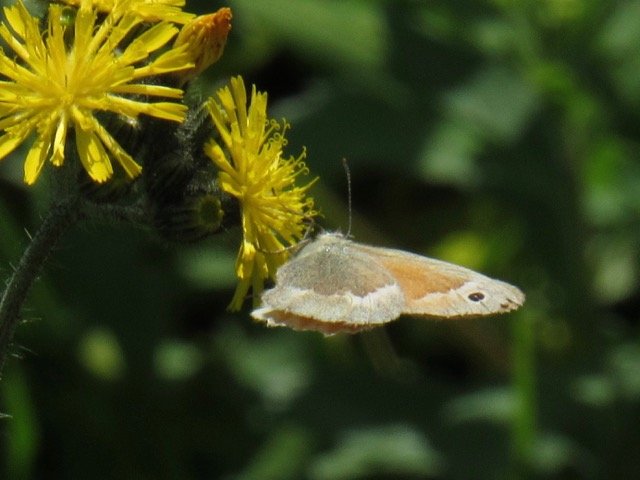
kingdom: Animalia
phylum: Arthropoda
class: Insecta
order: Lepidoptera
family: Nymphalidae
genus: Coenonympha
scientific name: Coenonympha tullia
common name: Large Heath
